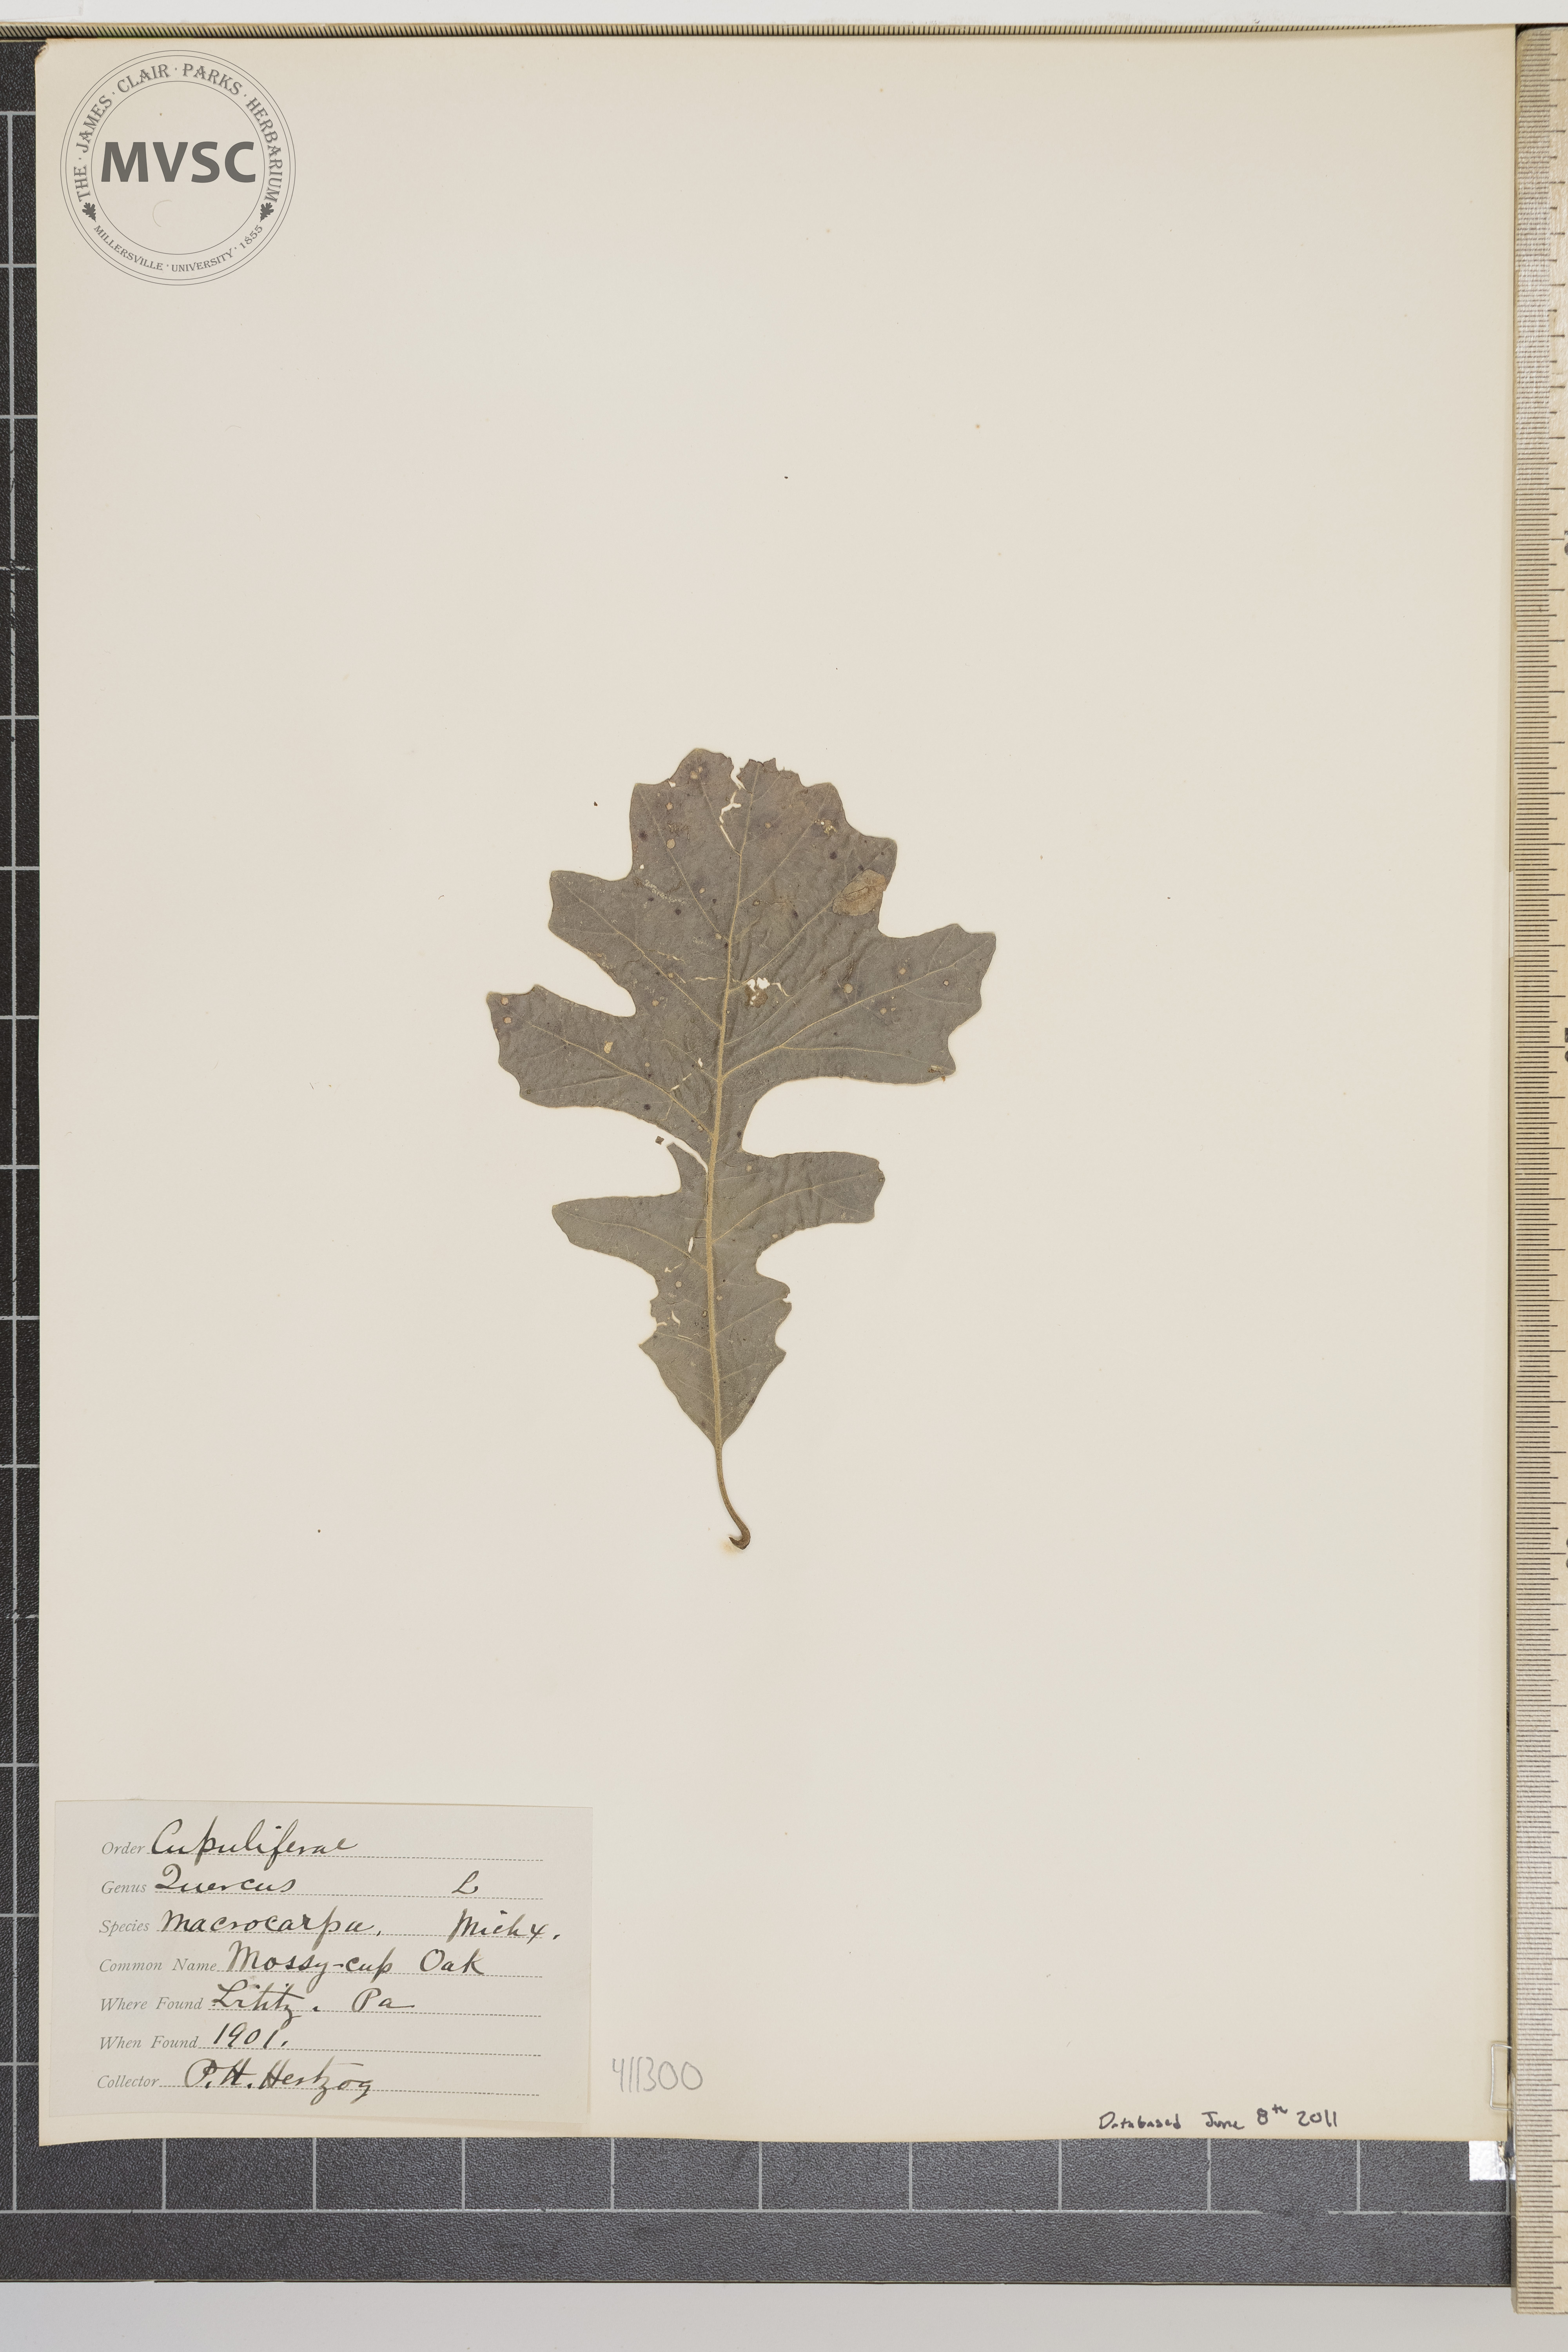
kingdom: Plantae
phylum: Tracheophyta
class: Magnoliopsida
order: Fagales
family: Fagaceae
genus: Quercus
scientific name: Quercus macrocarpa
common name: Bur oak
